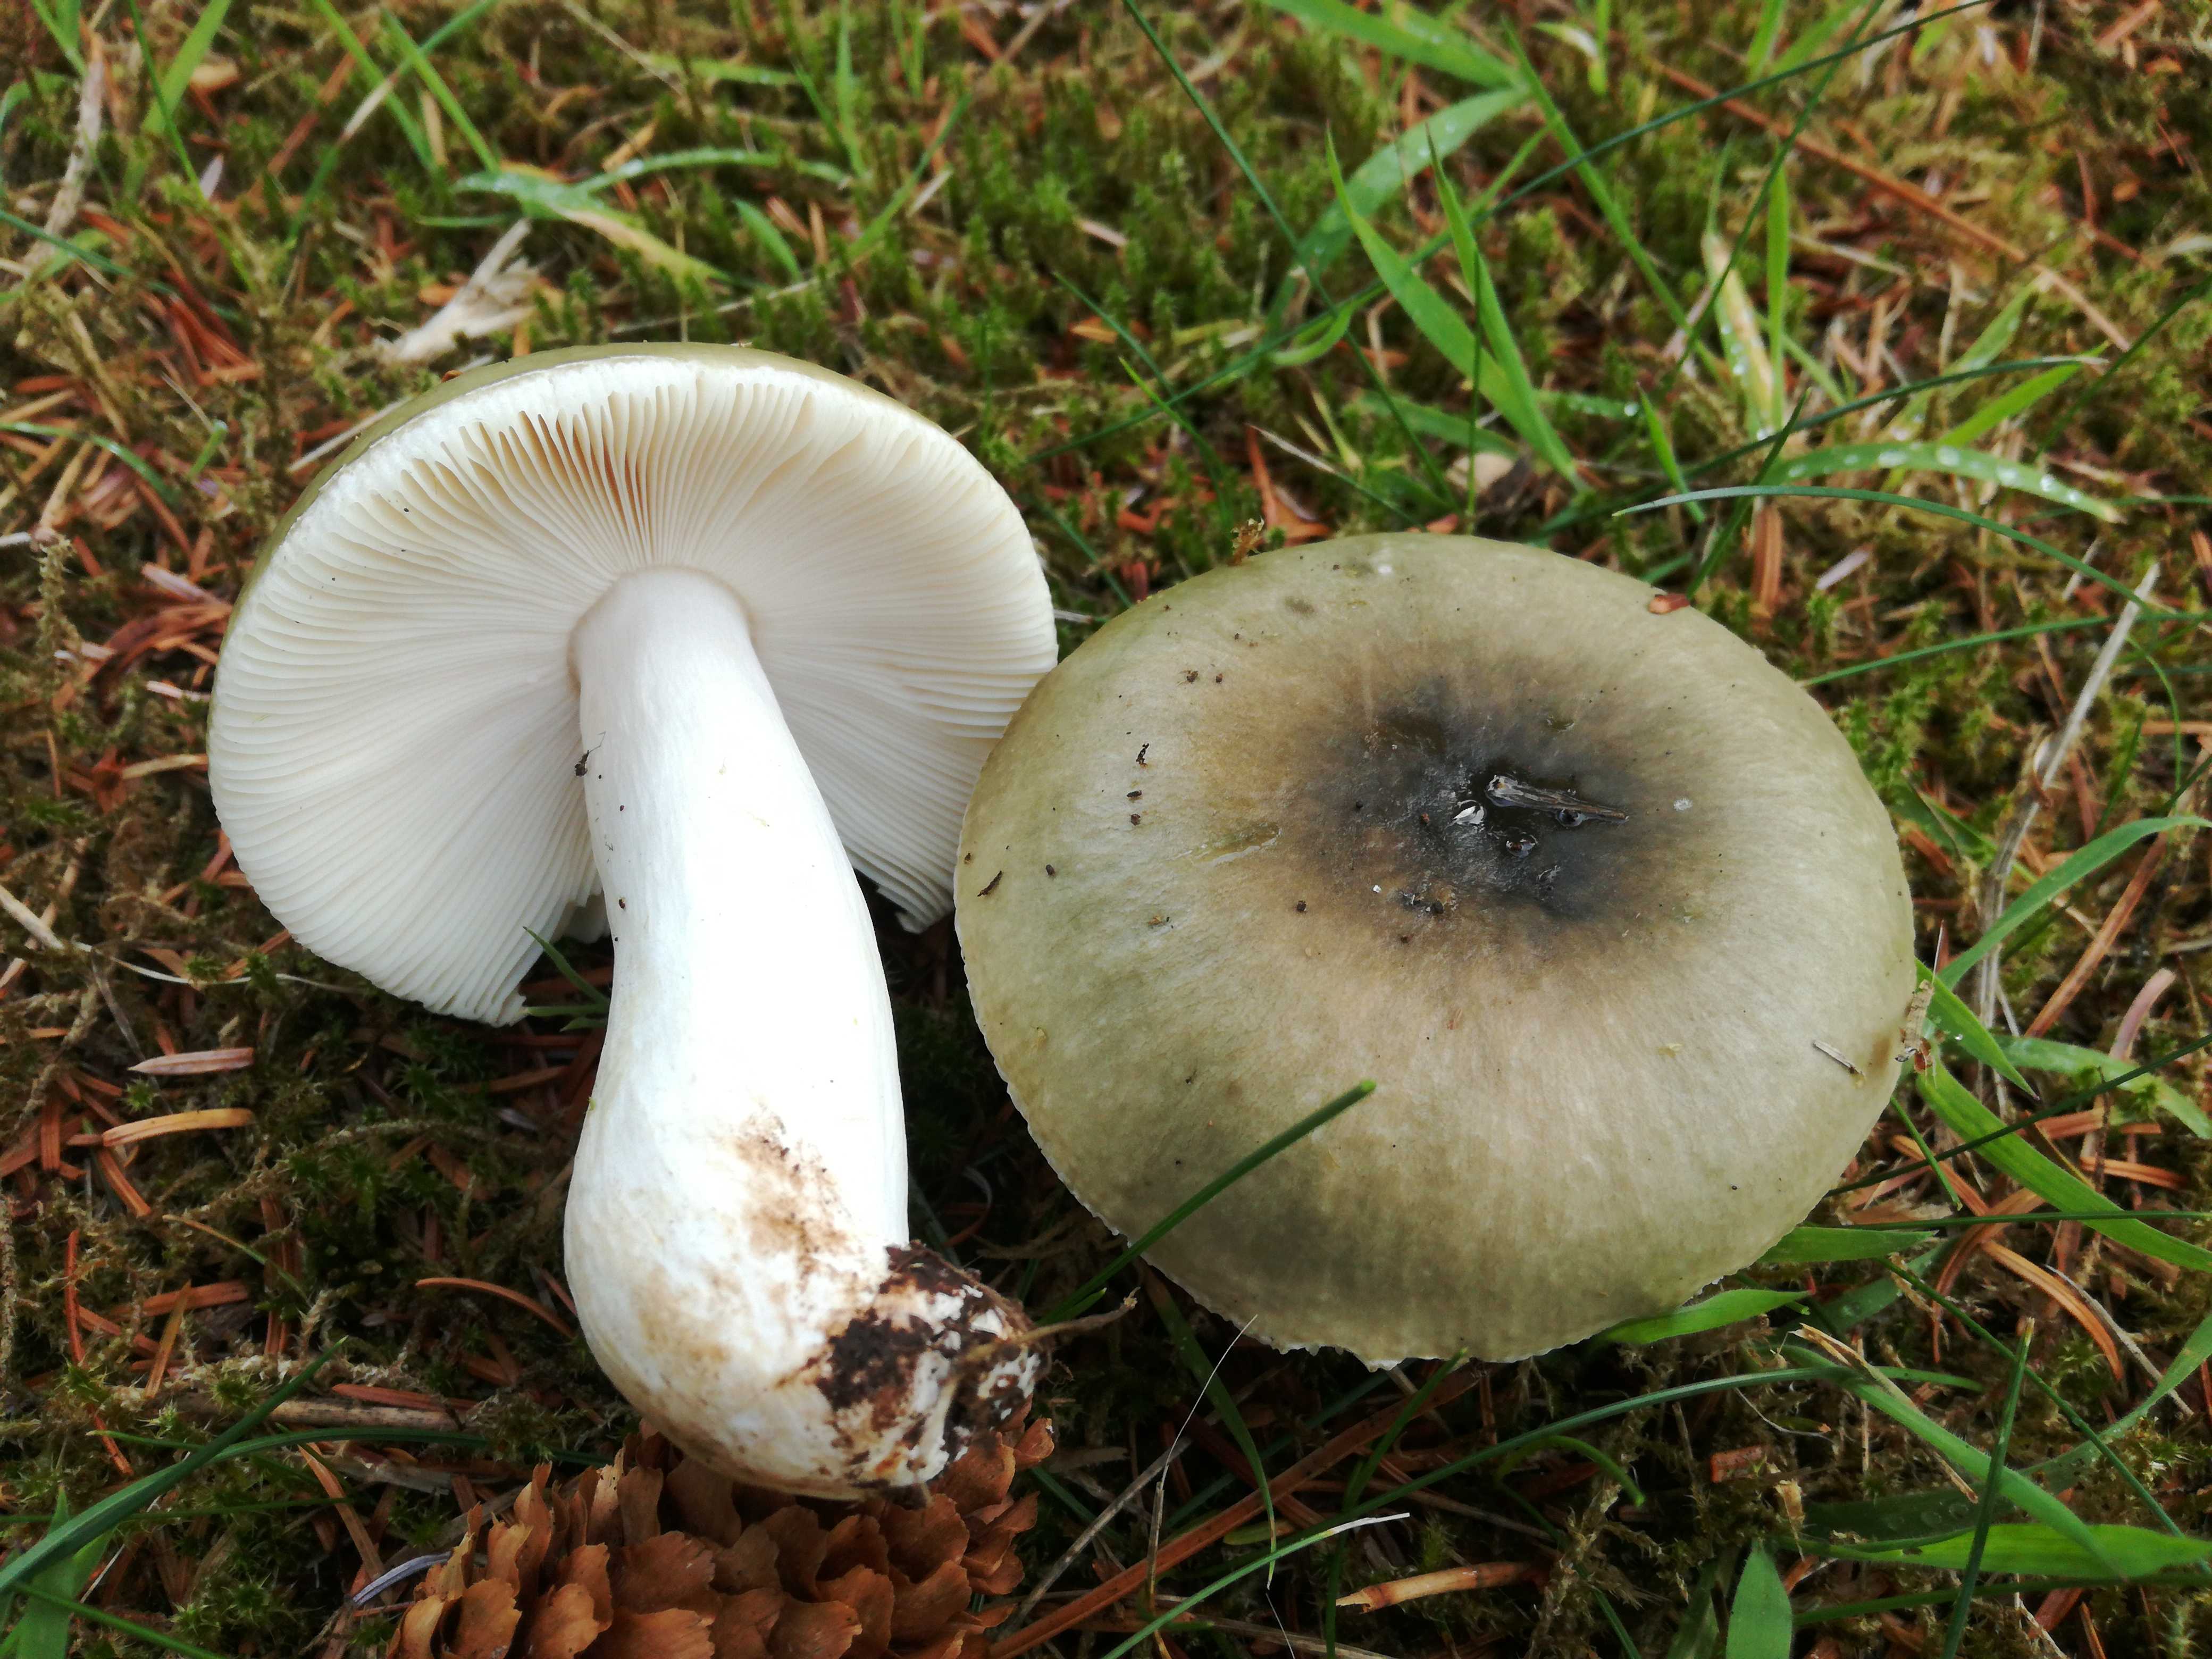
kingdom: Fungi
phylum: Basidiomycota
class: Agaricomycetes
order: Russulales
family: Russulaceae
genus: Russula
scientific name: Russula aeruginea
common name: græsgrøn skørhat
